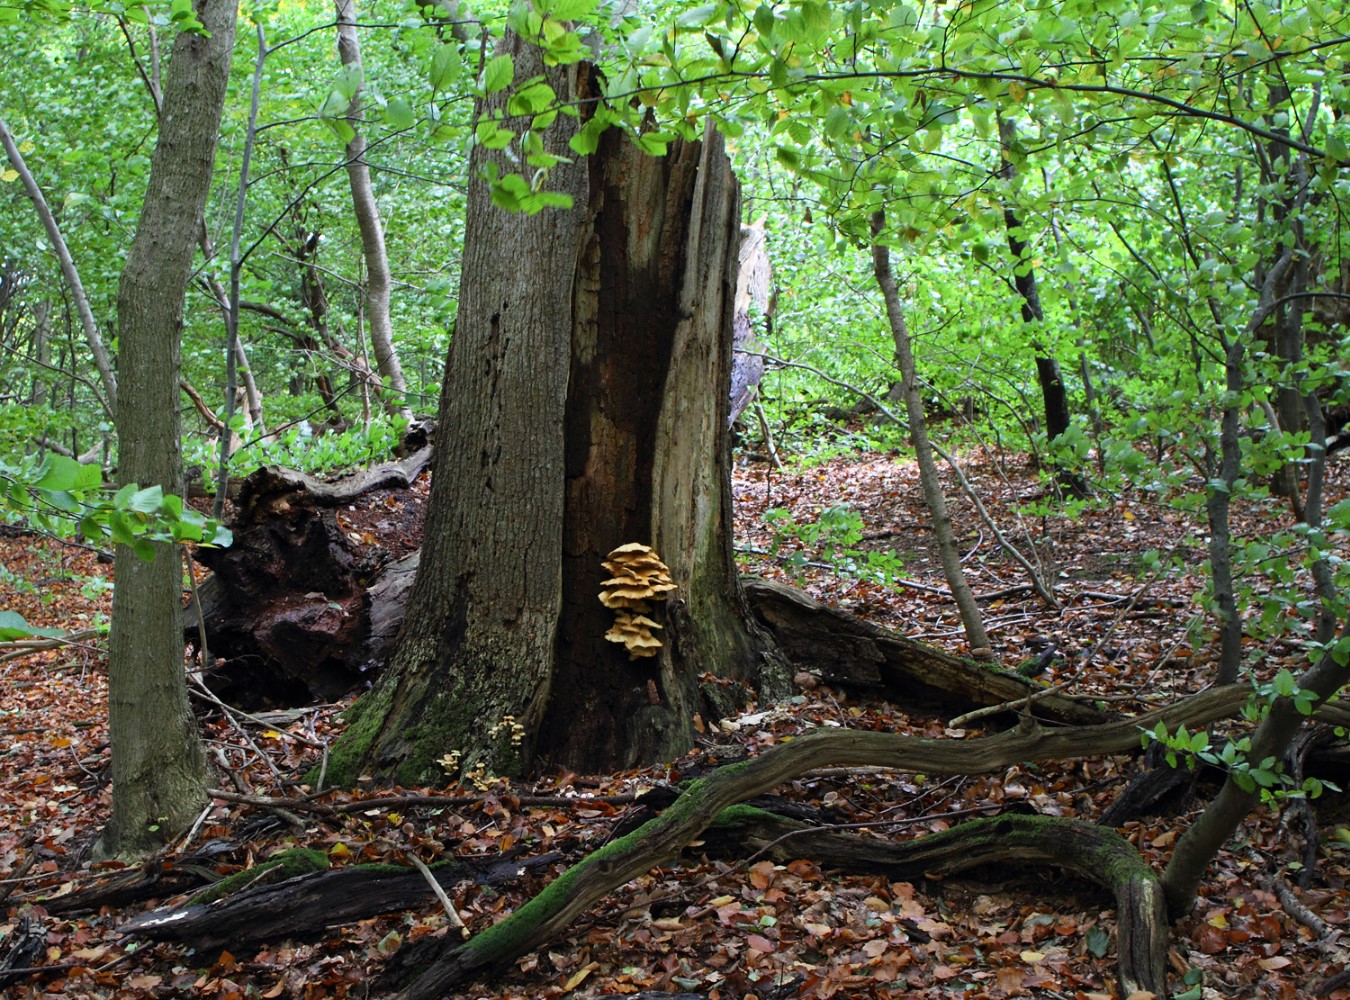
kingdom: Fungi
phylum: Basidiomycota
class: Agaricomycetes
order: Polyporales
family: Laetiporaceae
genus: Laetiporus
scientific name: Laetiporus sulphureus
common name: svovlporesvamp
